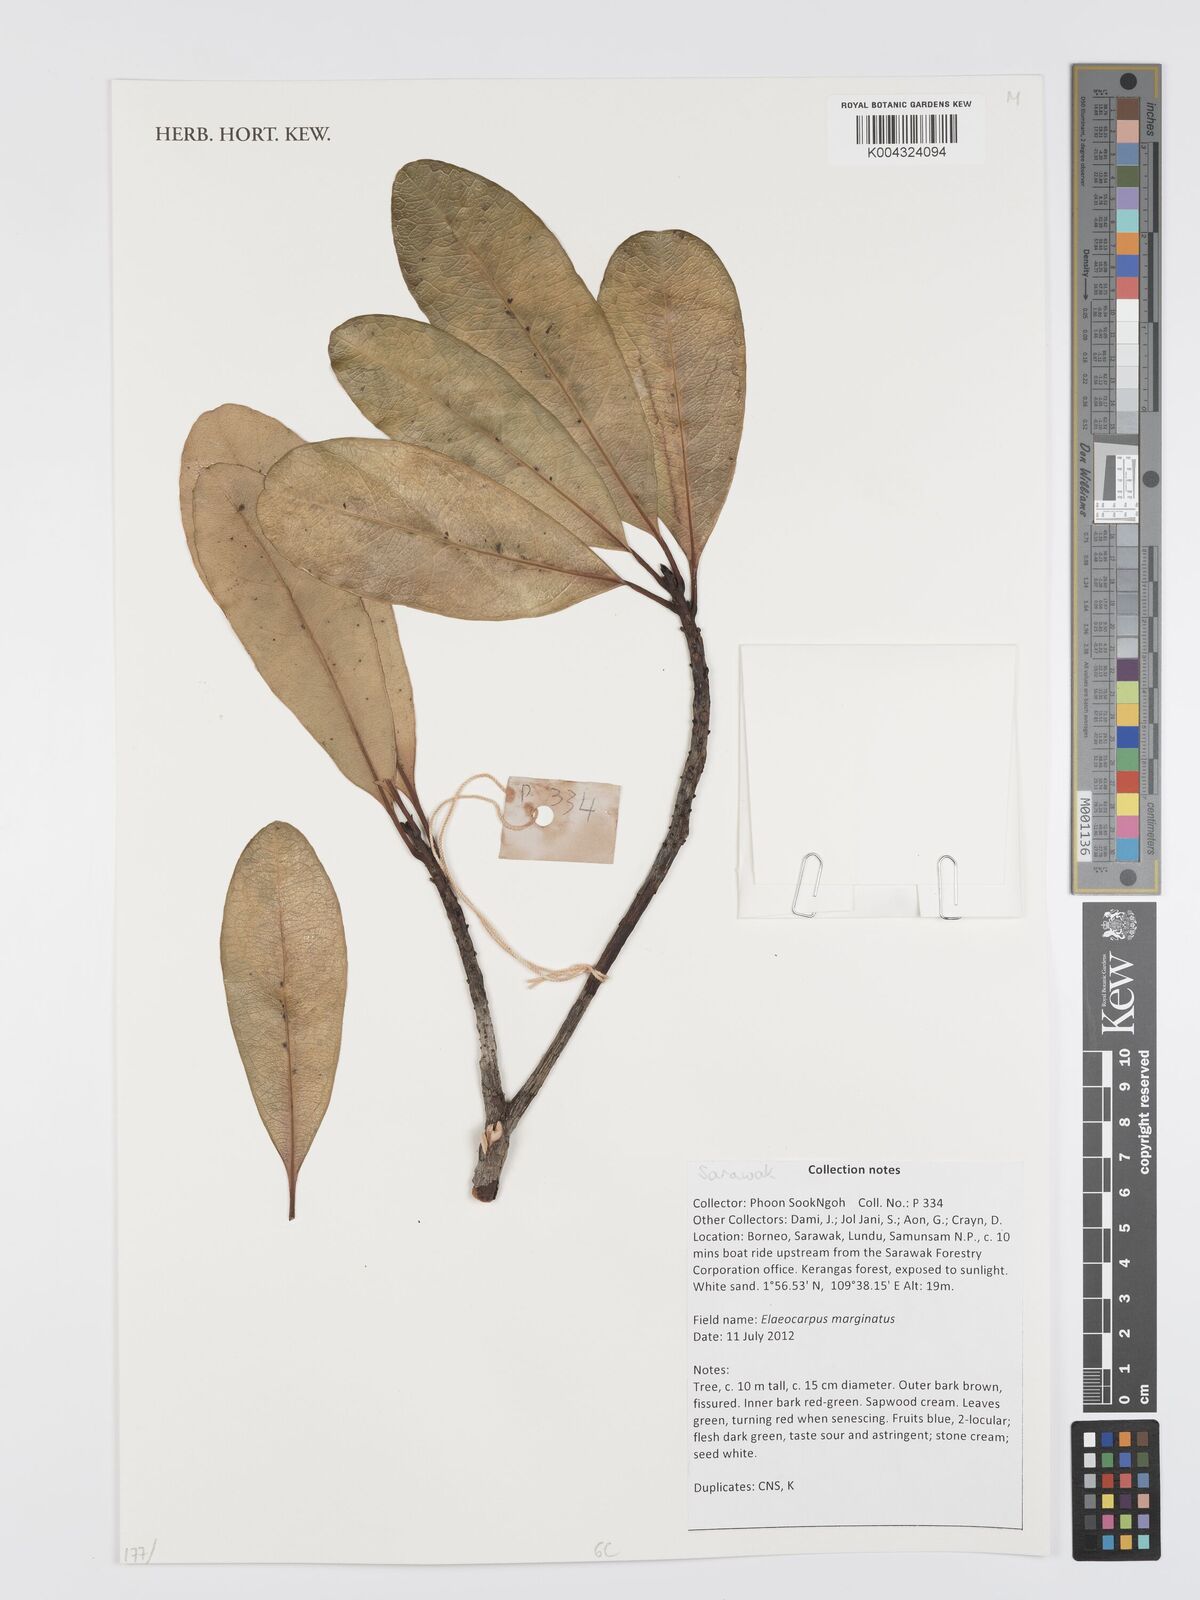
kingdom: Plantae
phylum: Tracheophyta
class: Magnoliopsida
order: Oxalidales
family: Elaeocarpaceae
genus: Elaeocarpus
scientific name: Elaeocarpus marginatus
